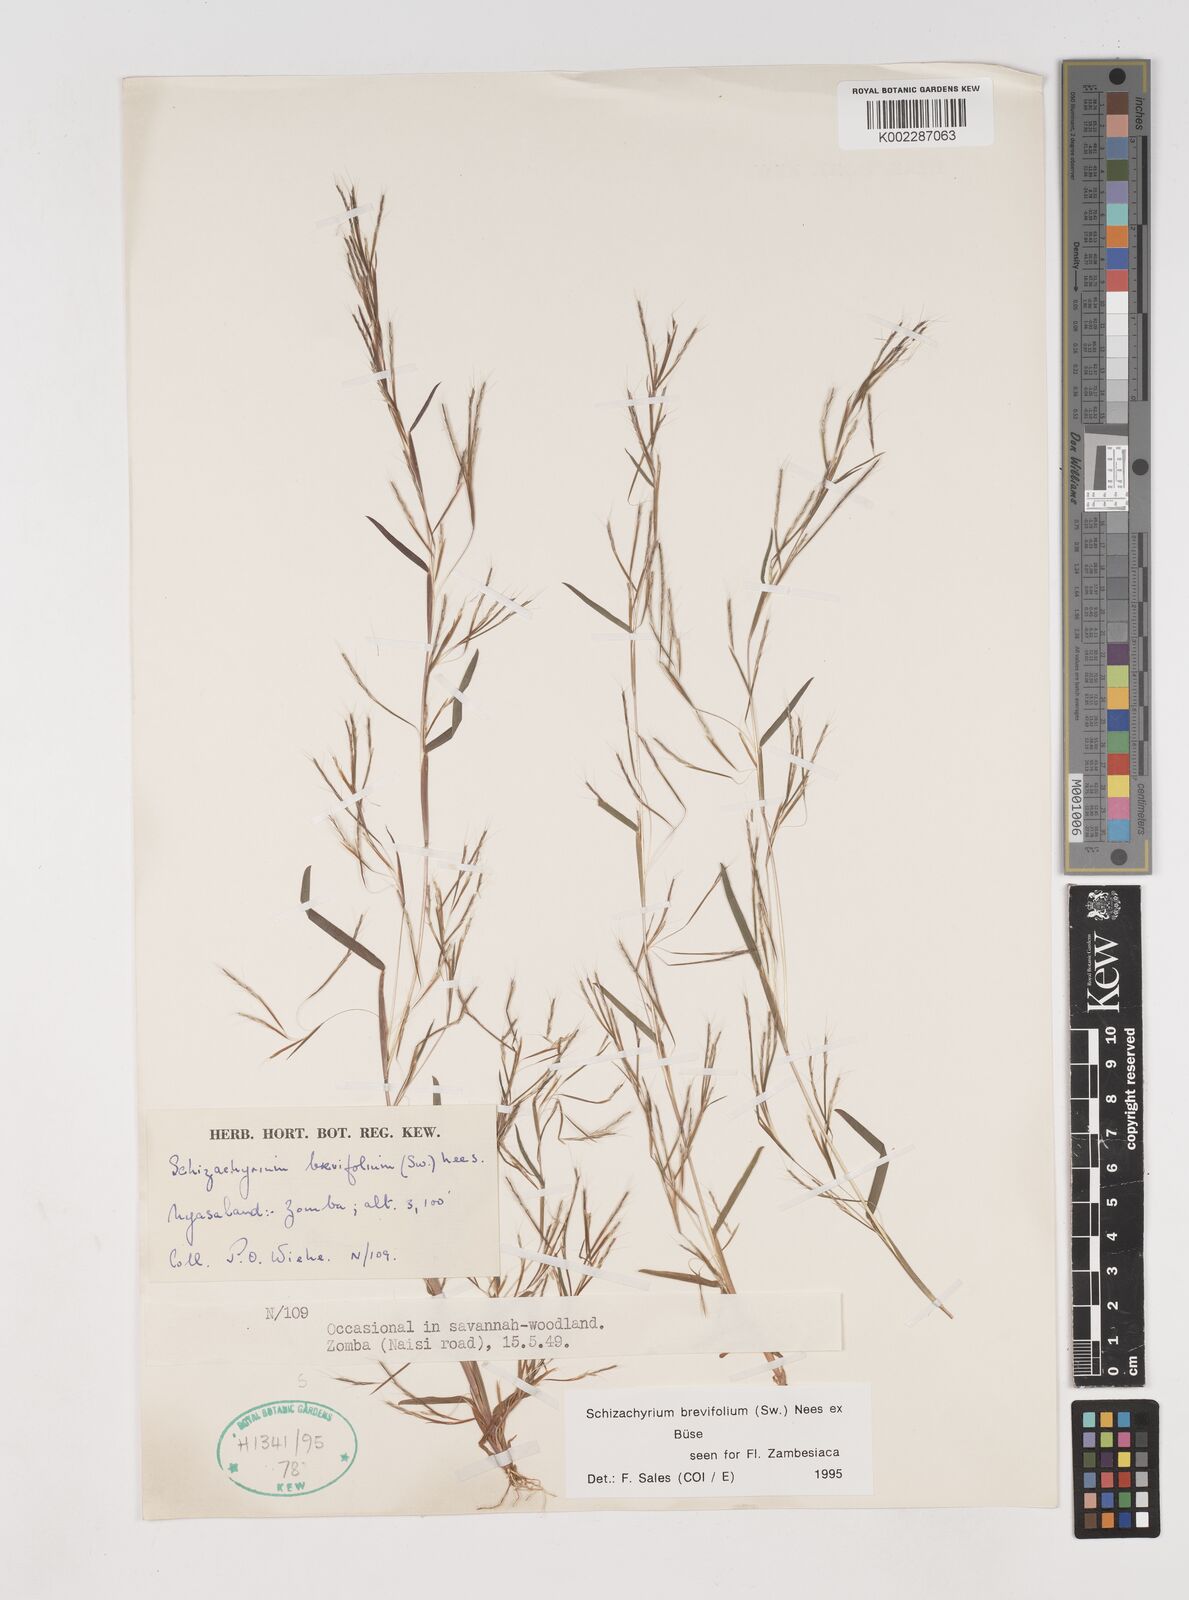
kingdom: Plantae
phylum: Tracheophyta
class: Liliopsida
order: Poales
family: Poaceae
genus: Schizachyrium
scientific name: Schizachyrium brevifolium
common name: Serillo dulce
